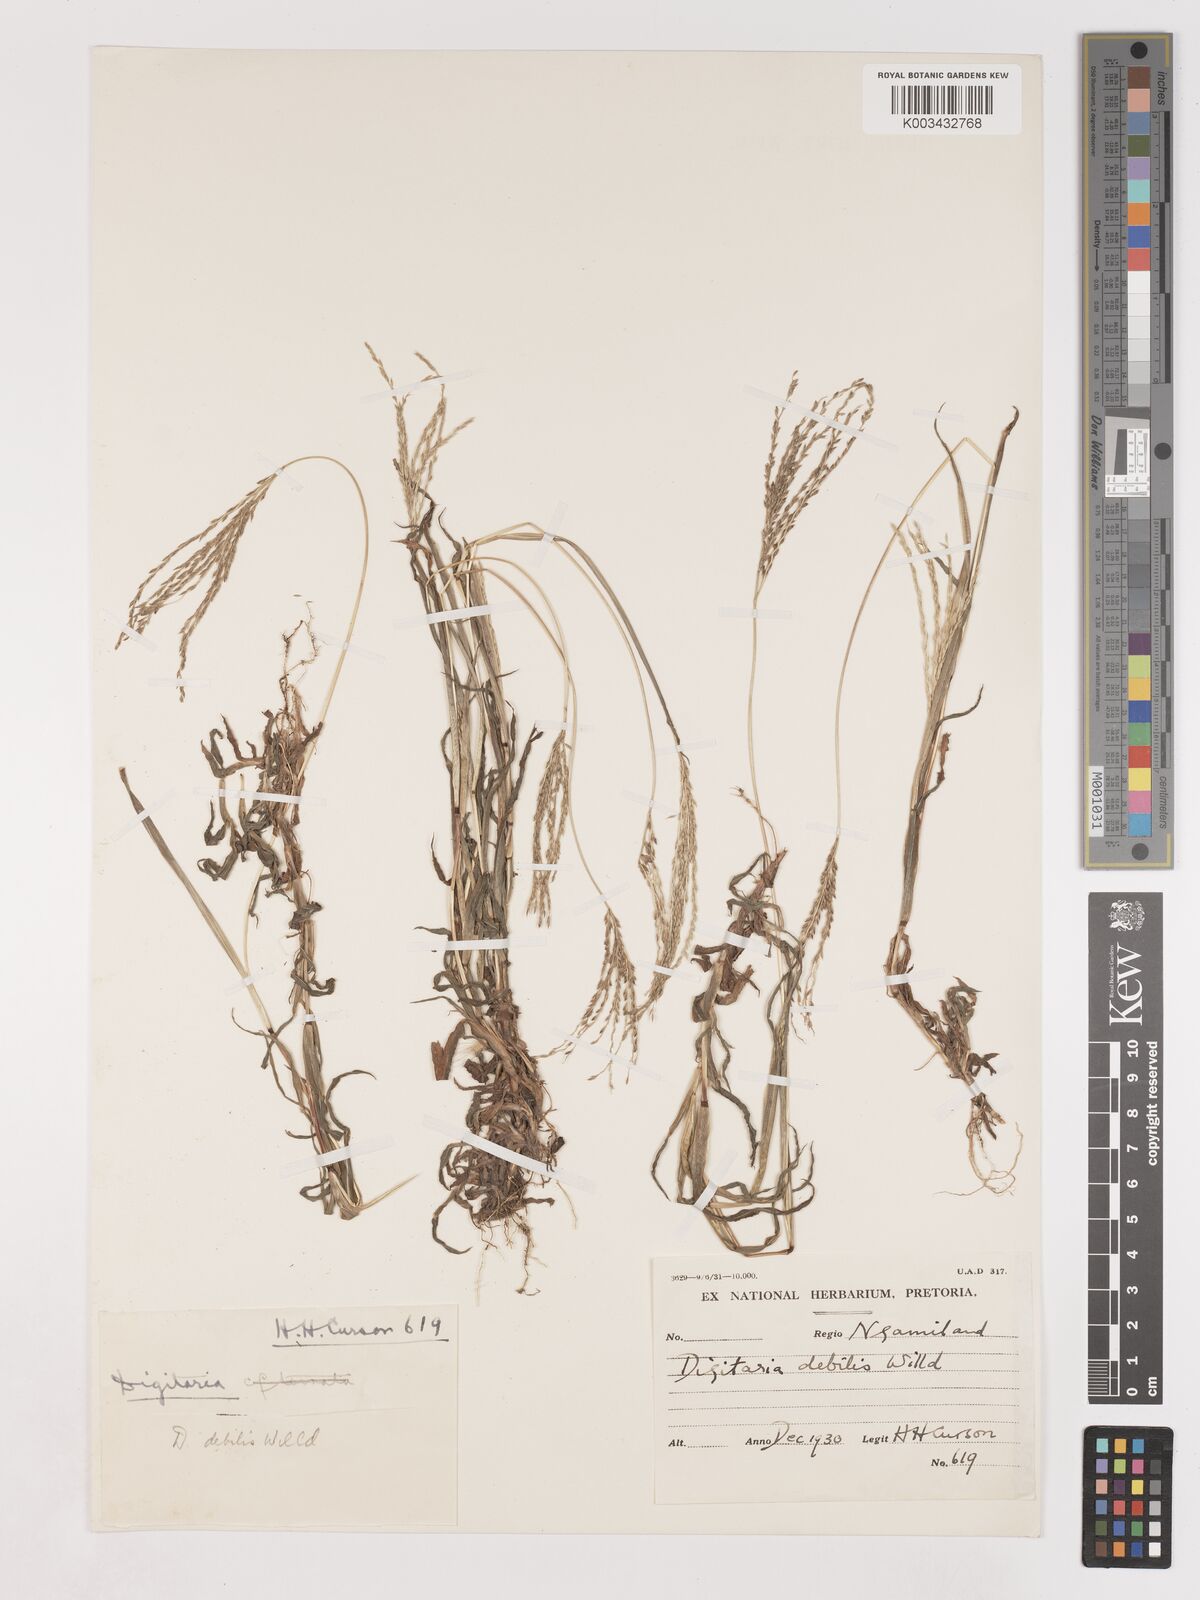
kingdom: Plantae
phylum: Tracheophyta
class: Liliopsida
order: Poales
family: Poaceae
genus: Digitaria
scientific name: Digitaria debilis
